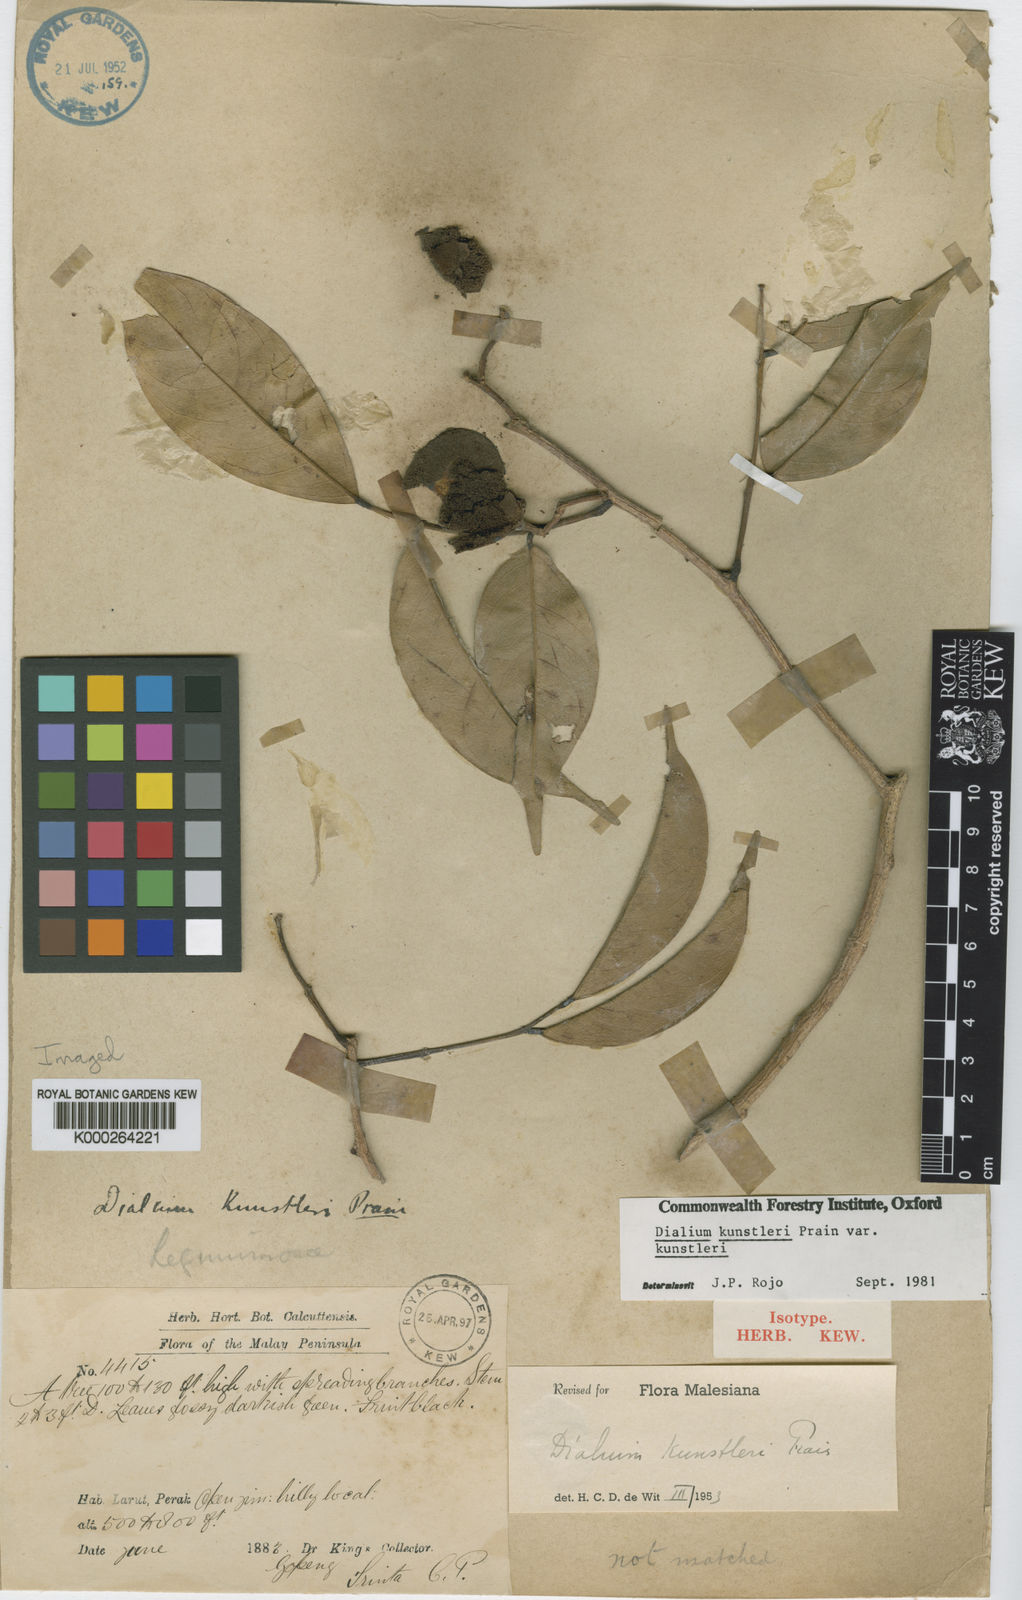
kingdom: Plantae
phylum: Tracheophyta
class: Magnoliopsida
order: Fabales
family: Fabaceae
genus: Dialium
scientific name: Dialium kunstleri
